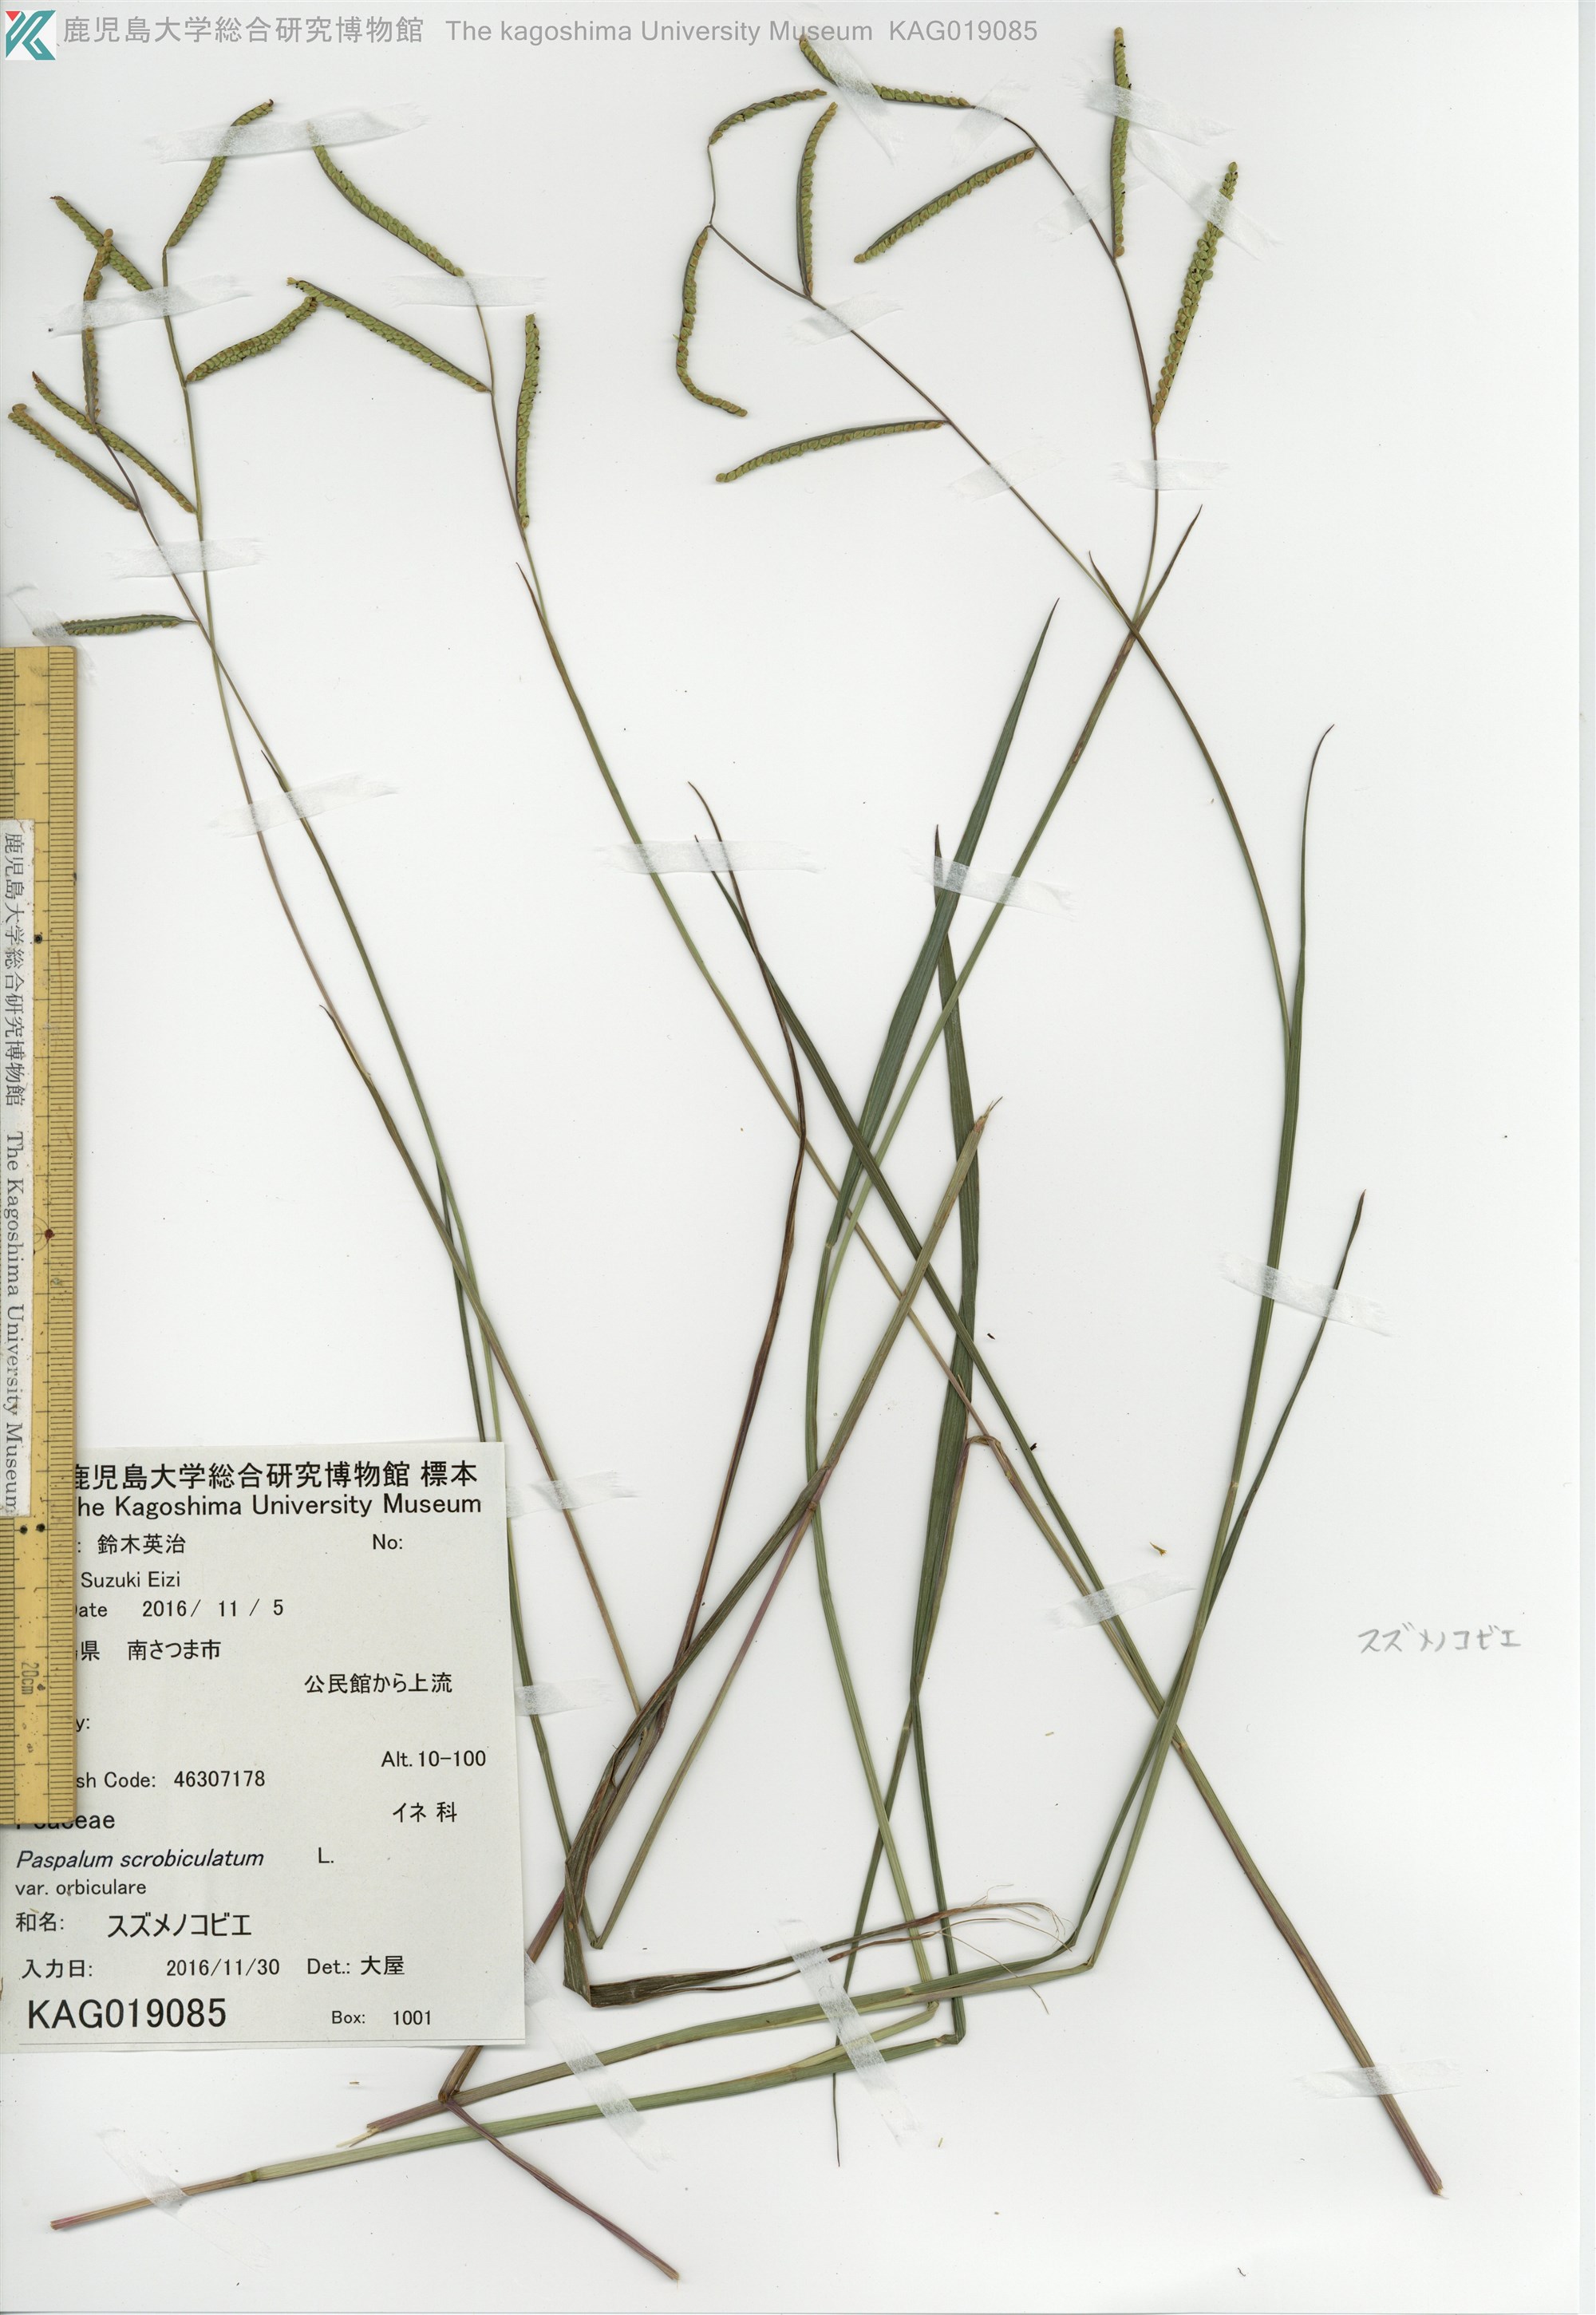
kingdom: Plantae
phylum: Tracheophyta
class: Liliopsida
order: Poales
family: Poaceae
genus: Paspalum
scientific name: Paspalum scrobiculatum
